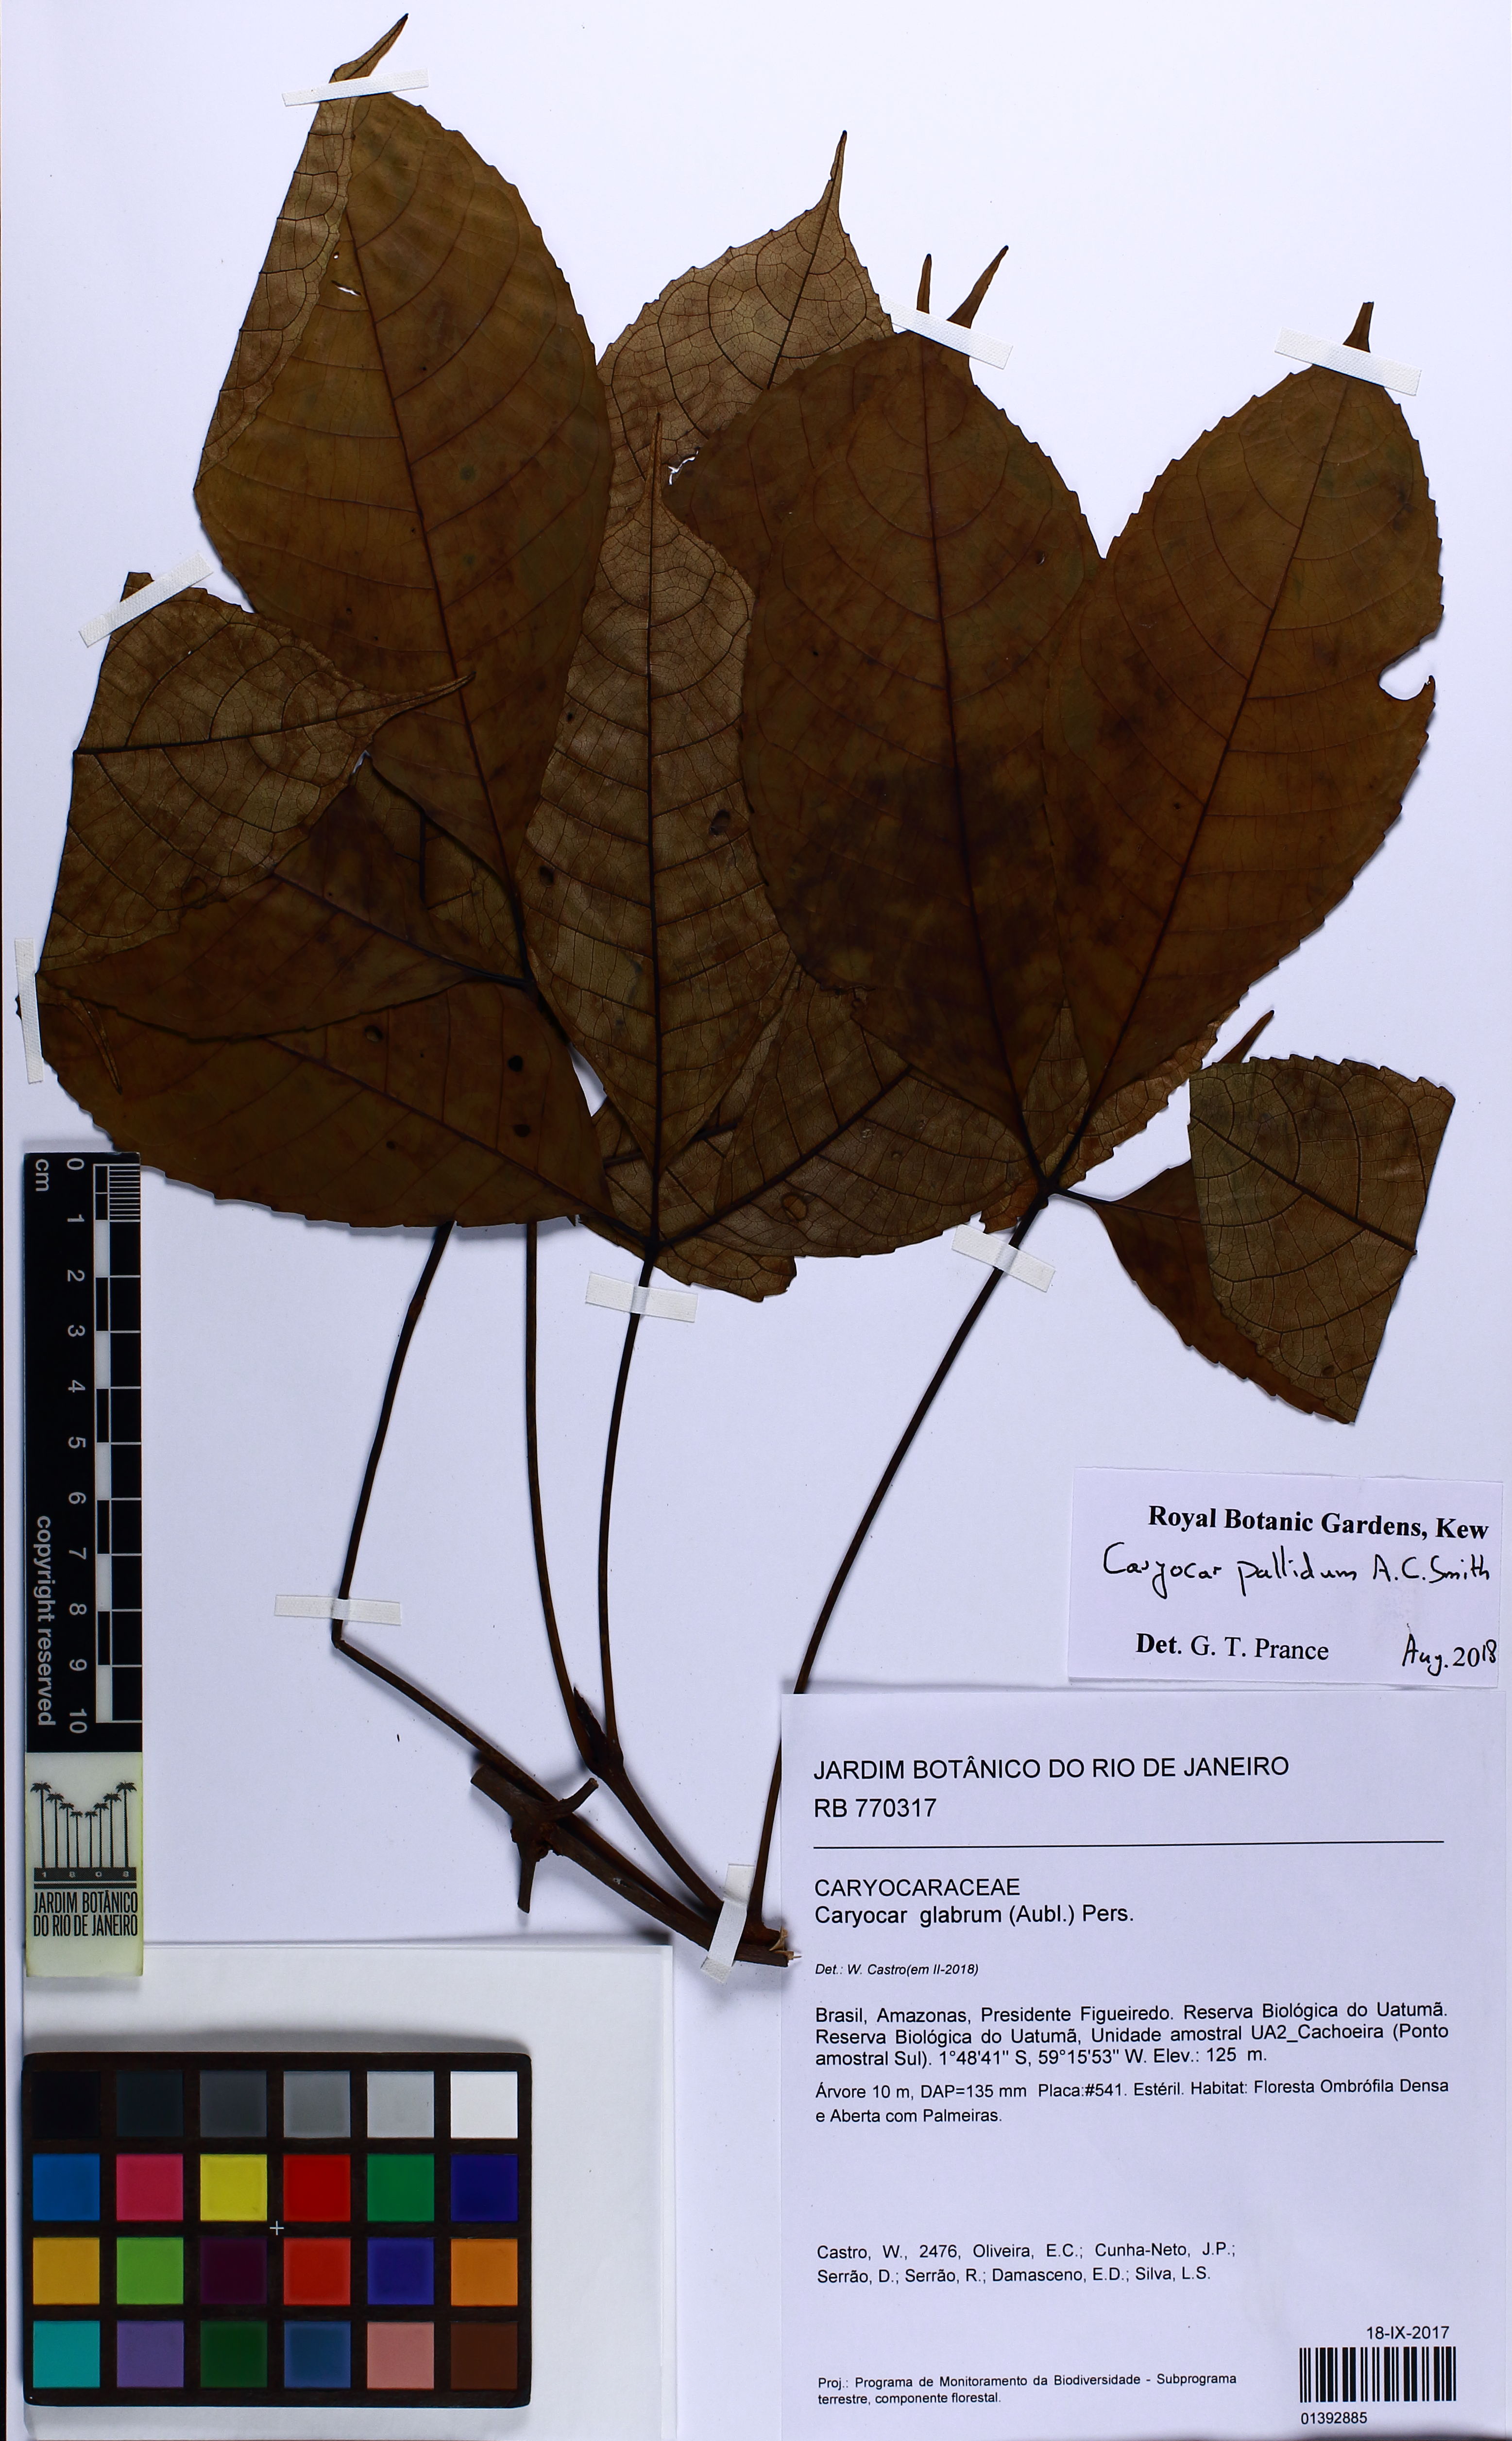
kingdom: Plantae
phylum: Tracheophyta
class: Magnoliopsida
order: Malpighiales
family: Caryocaraceae
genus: Caryocar
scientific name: Caryocar pallidum
